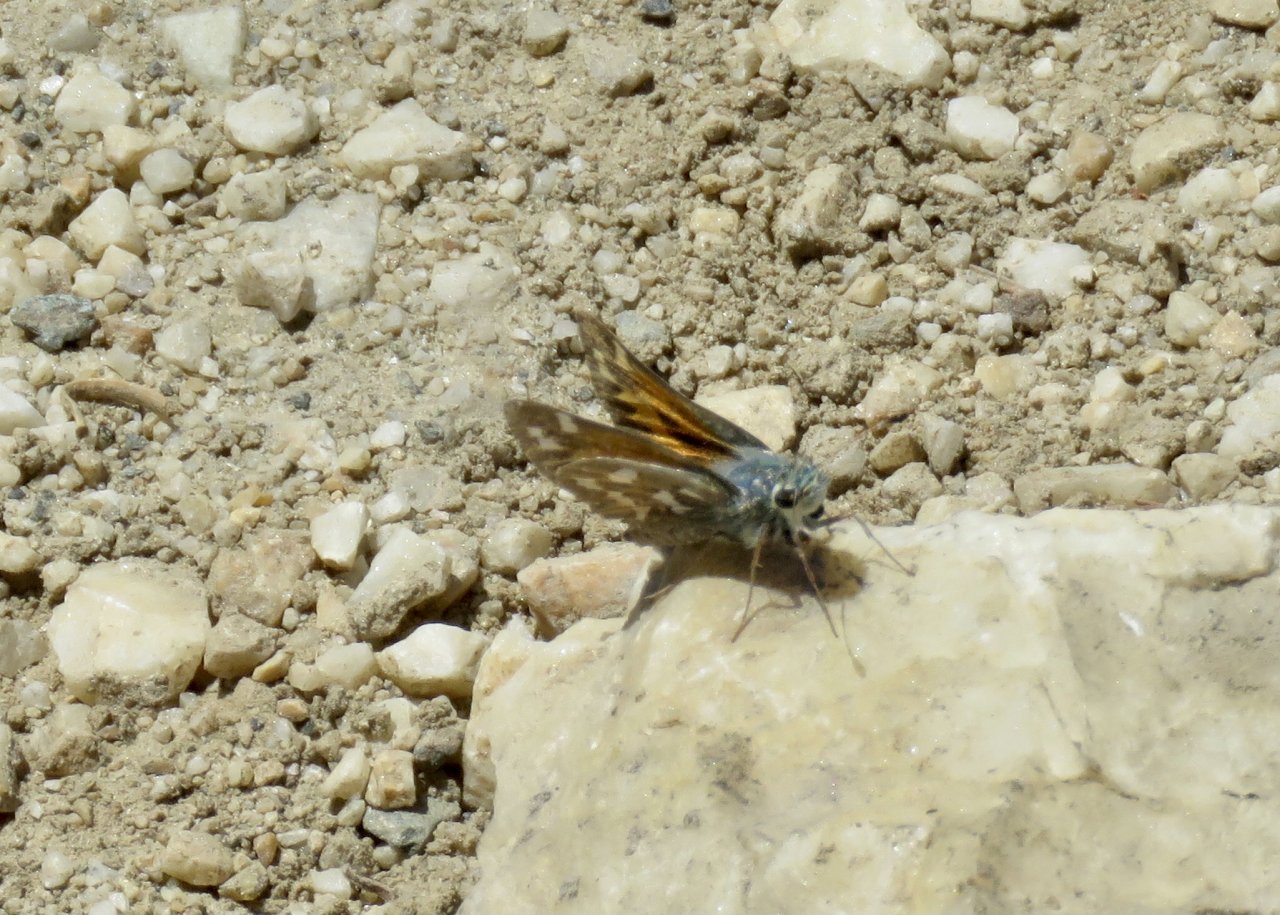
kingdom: Animalia
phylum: Arthropoda
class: Insecta
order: Lepidoptera
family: Hesperiidae
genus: Hesperia
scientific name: Hesperia juba
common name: Juba Skipper
